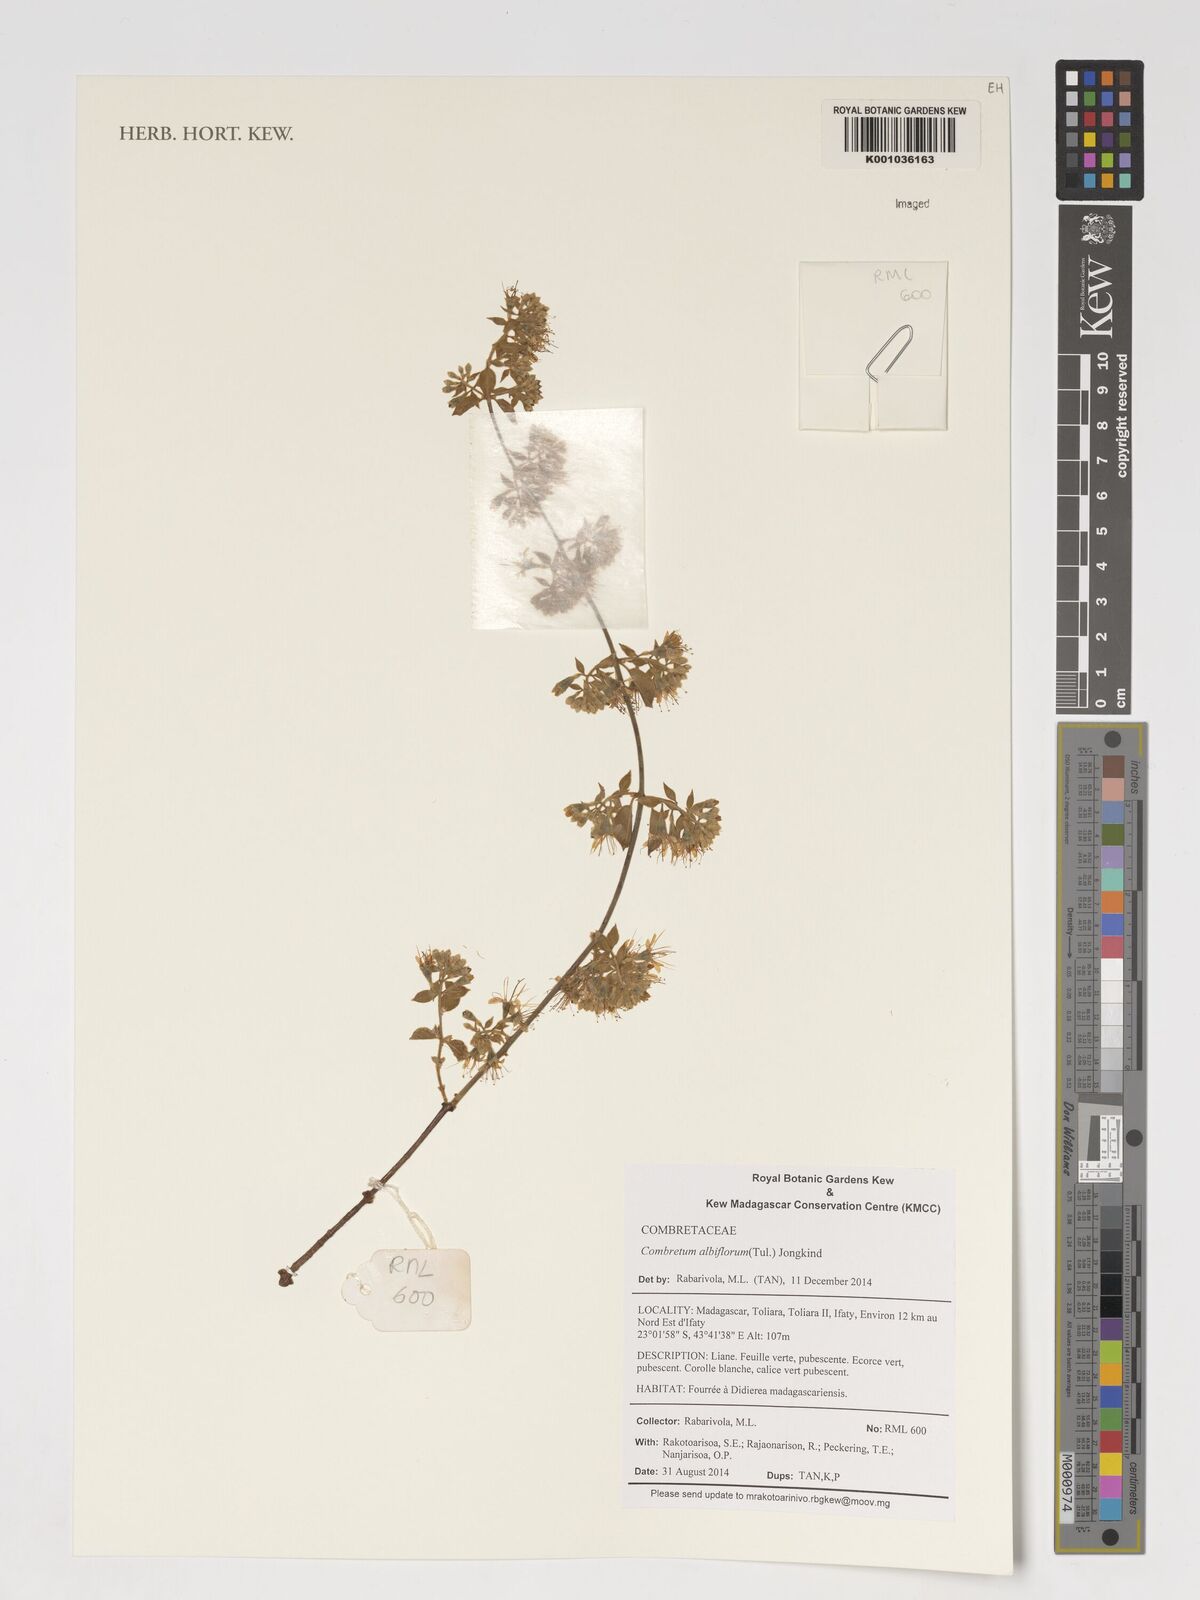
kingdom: Plantae
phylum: Tracheophyta
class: Magnoliopsida
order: Myrtales
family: Combretaceae
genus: Combretum
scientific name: Combretum albiflorum
